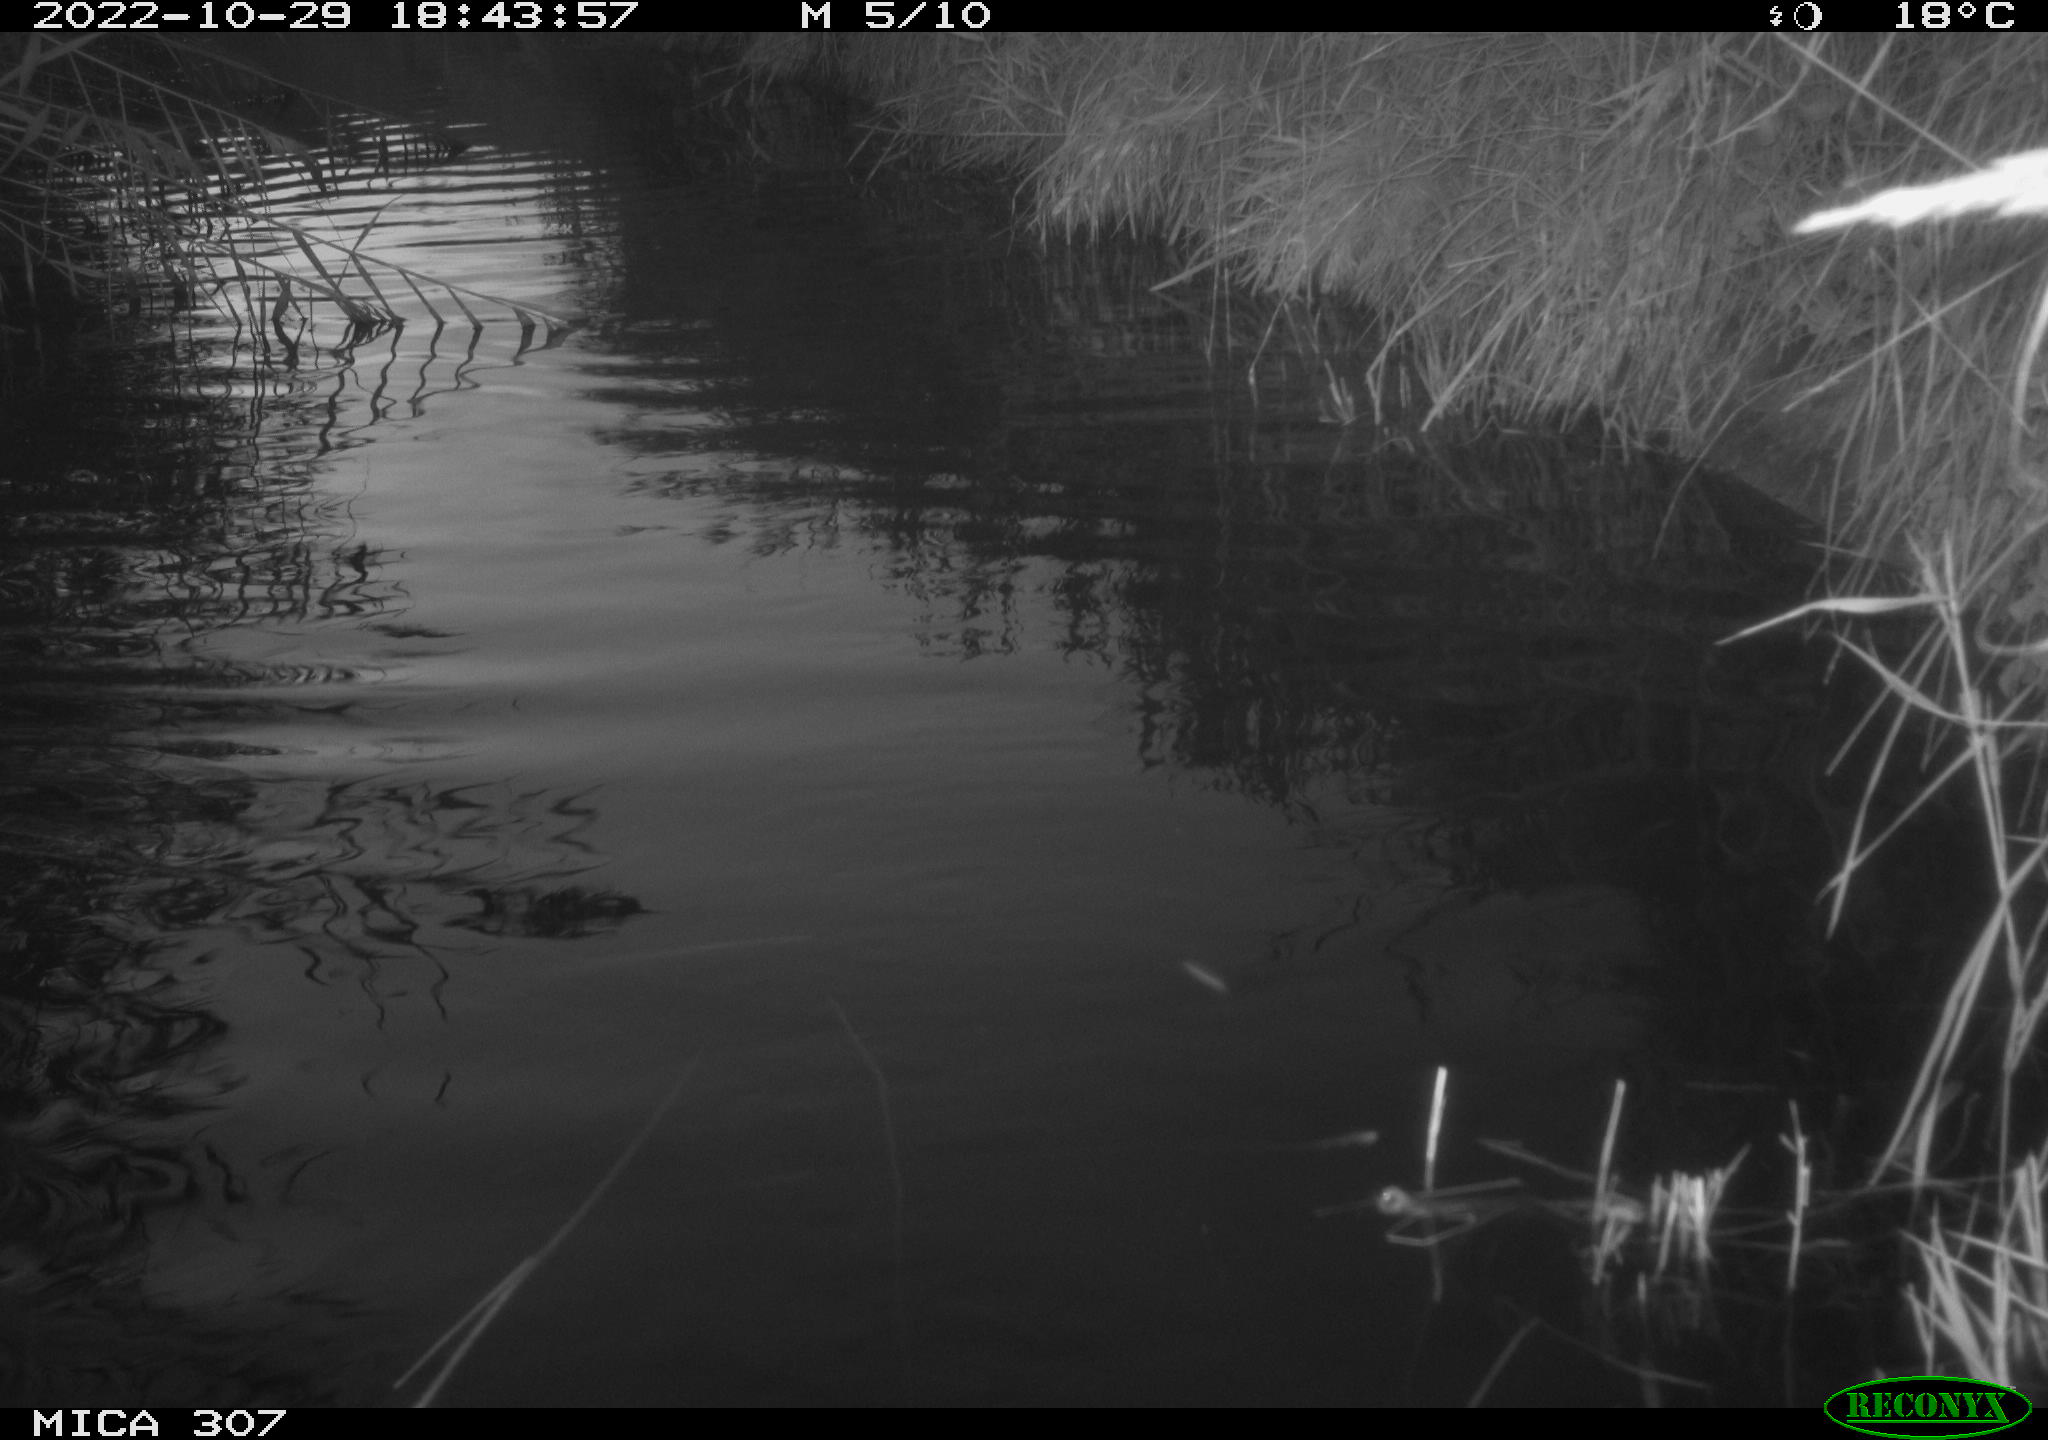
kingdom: Animalia
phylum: Chordata
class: Aves
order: Anseriformes
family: Anatidae
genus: Anas
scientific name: Anas
